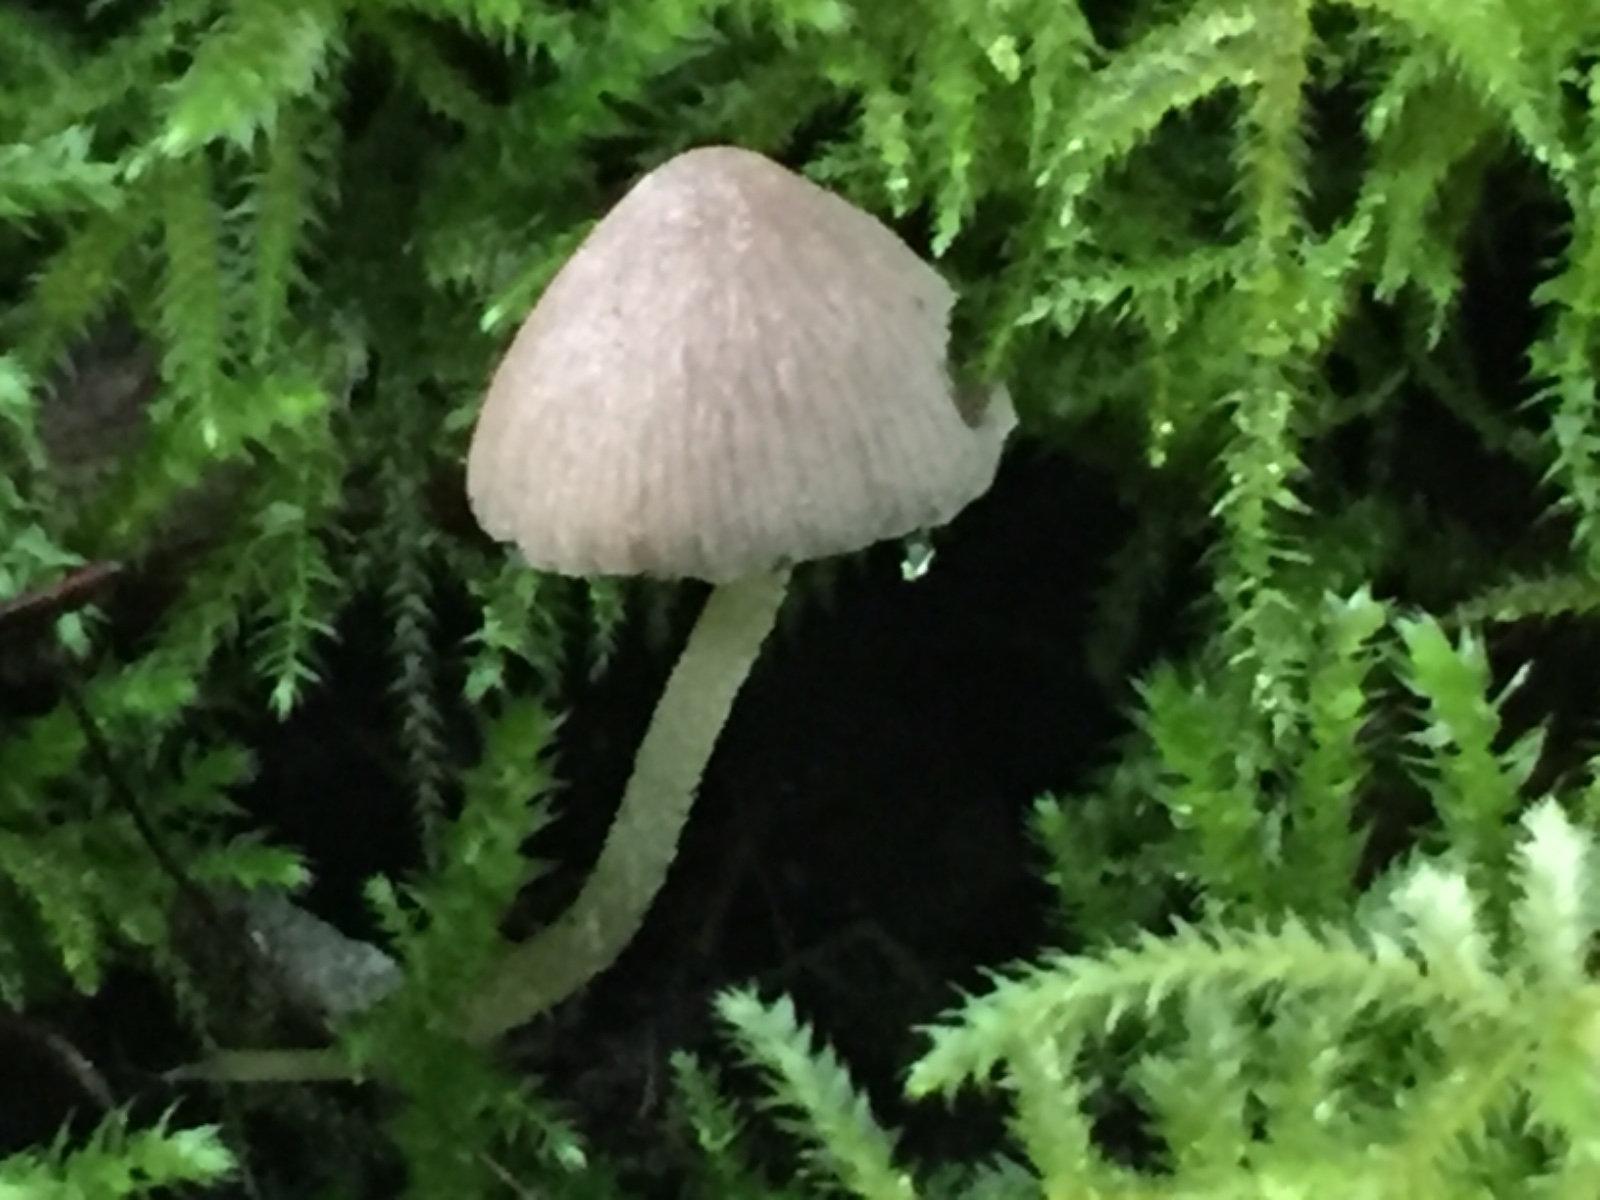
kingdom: Fungi
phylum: Basidiomycota
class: Agaricomycetes
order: Agaricales
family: Psathyrellaceae
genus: Coprinopsis
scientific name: Coprinopsis canoceps
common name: gråhåret blækhat
